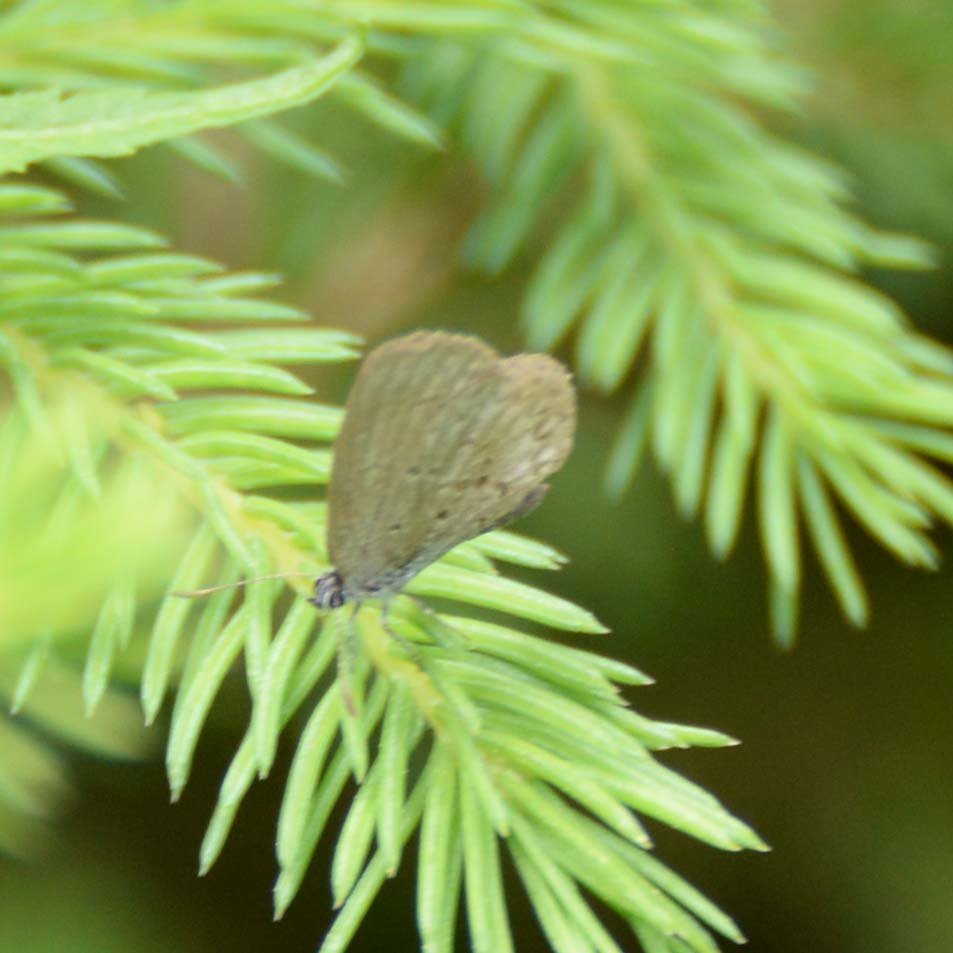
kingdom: Animalia
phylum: Arthropoda
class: Insecta
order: Lepidoptera
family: Lycaenidae
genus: Celastrina
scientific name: Celastrina lucia
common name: Northern Spring Azure
